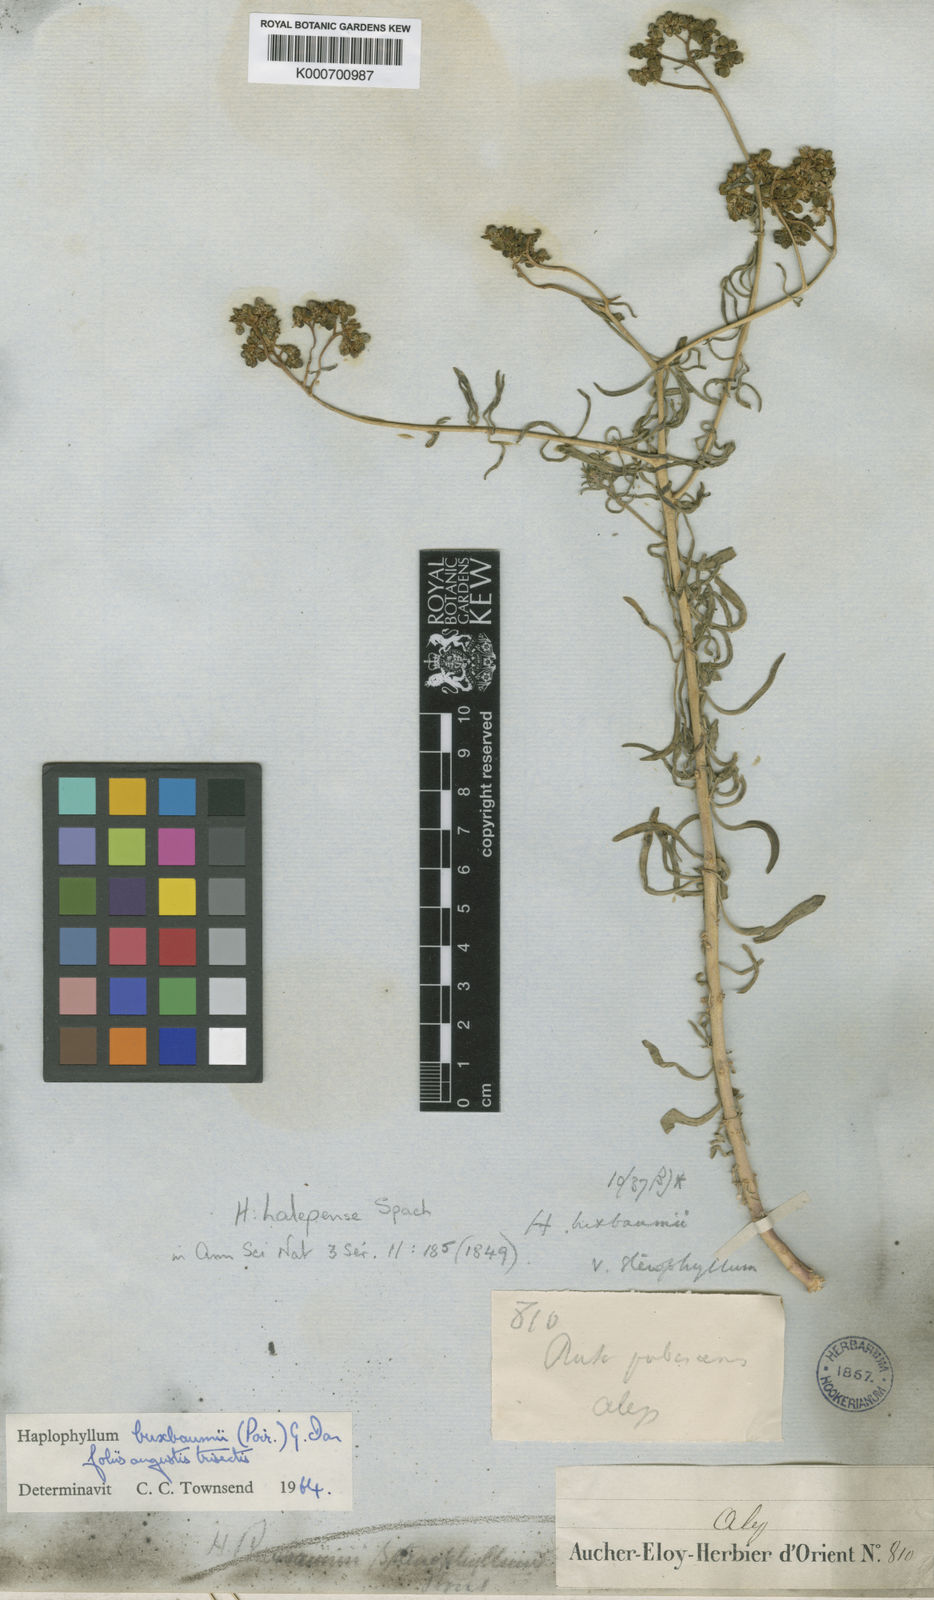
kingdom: Plantae
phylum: Tracheophyta
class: Magnoliopsida
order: Sapindales
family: Rutaceae
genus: Haplophyllum
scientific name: Haplophyllum buxbaumii
